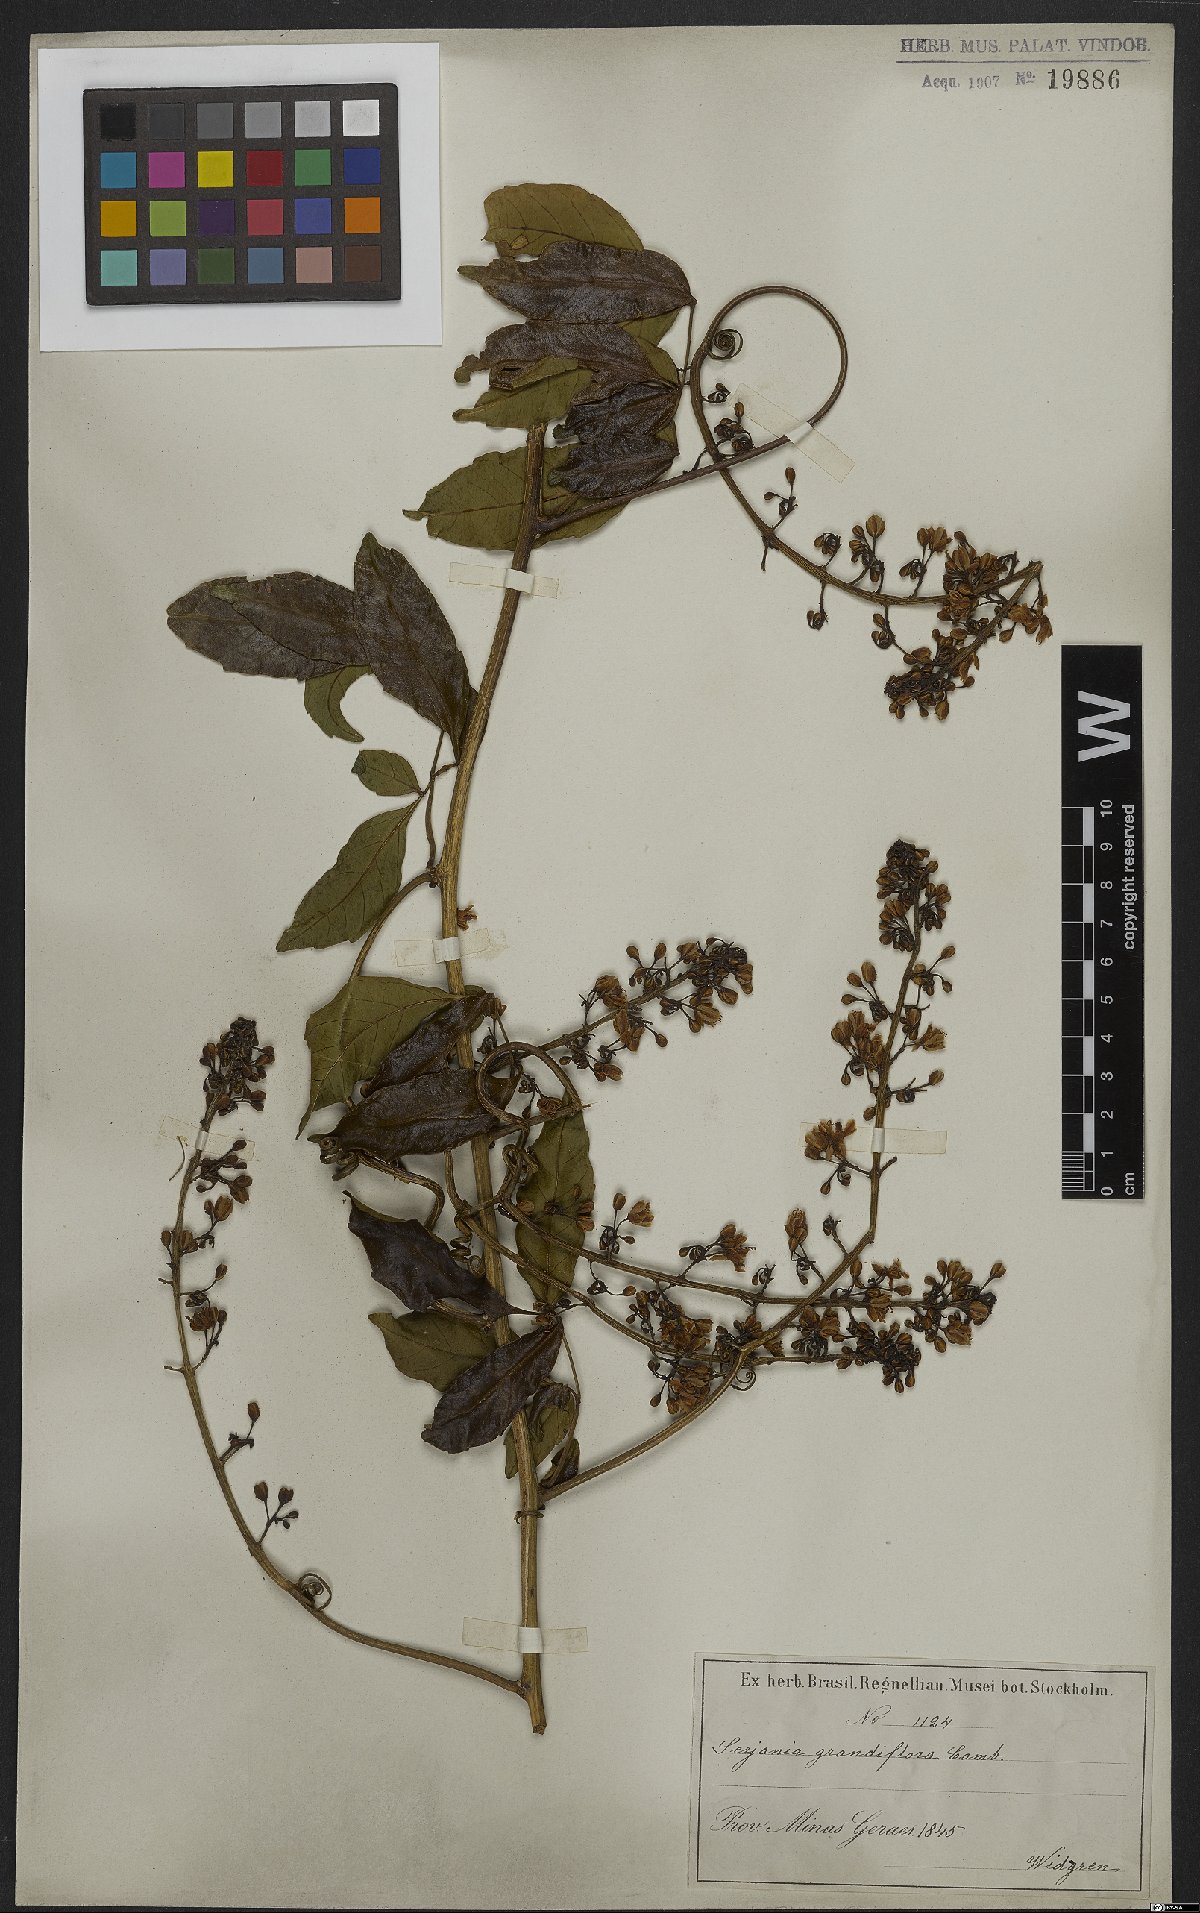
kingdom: Plantae
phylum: Tracheophyta
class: Magnoliopsida
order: Sapindales
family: Sapindaceae
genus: Serjania
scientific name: Serjania caracasana
